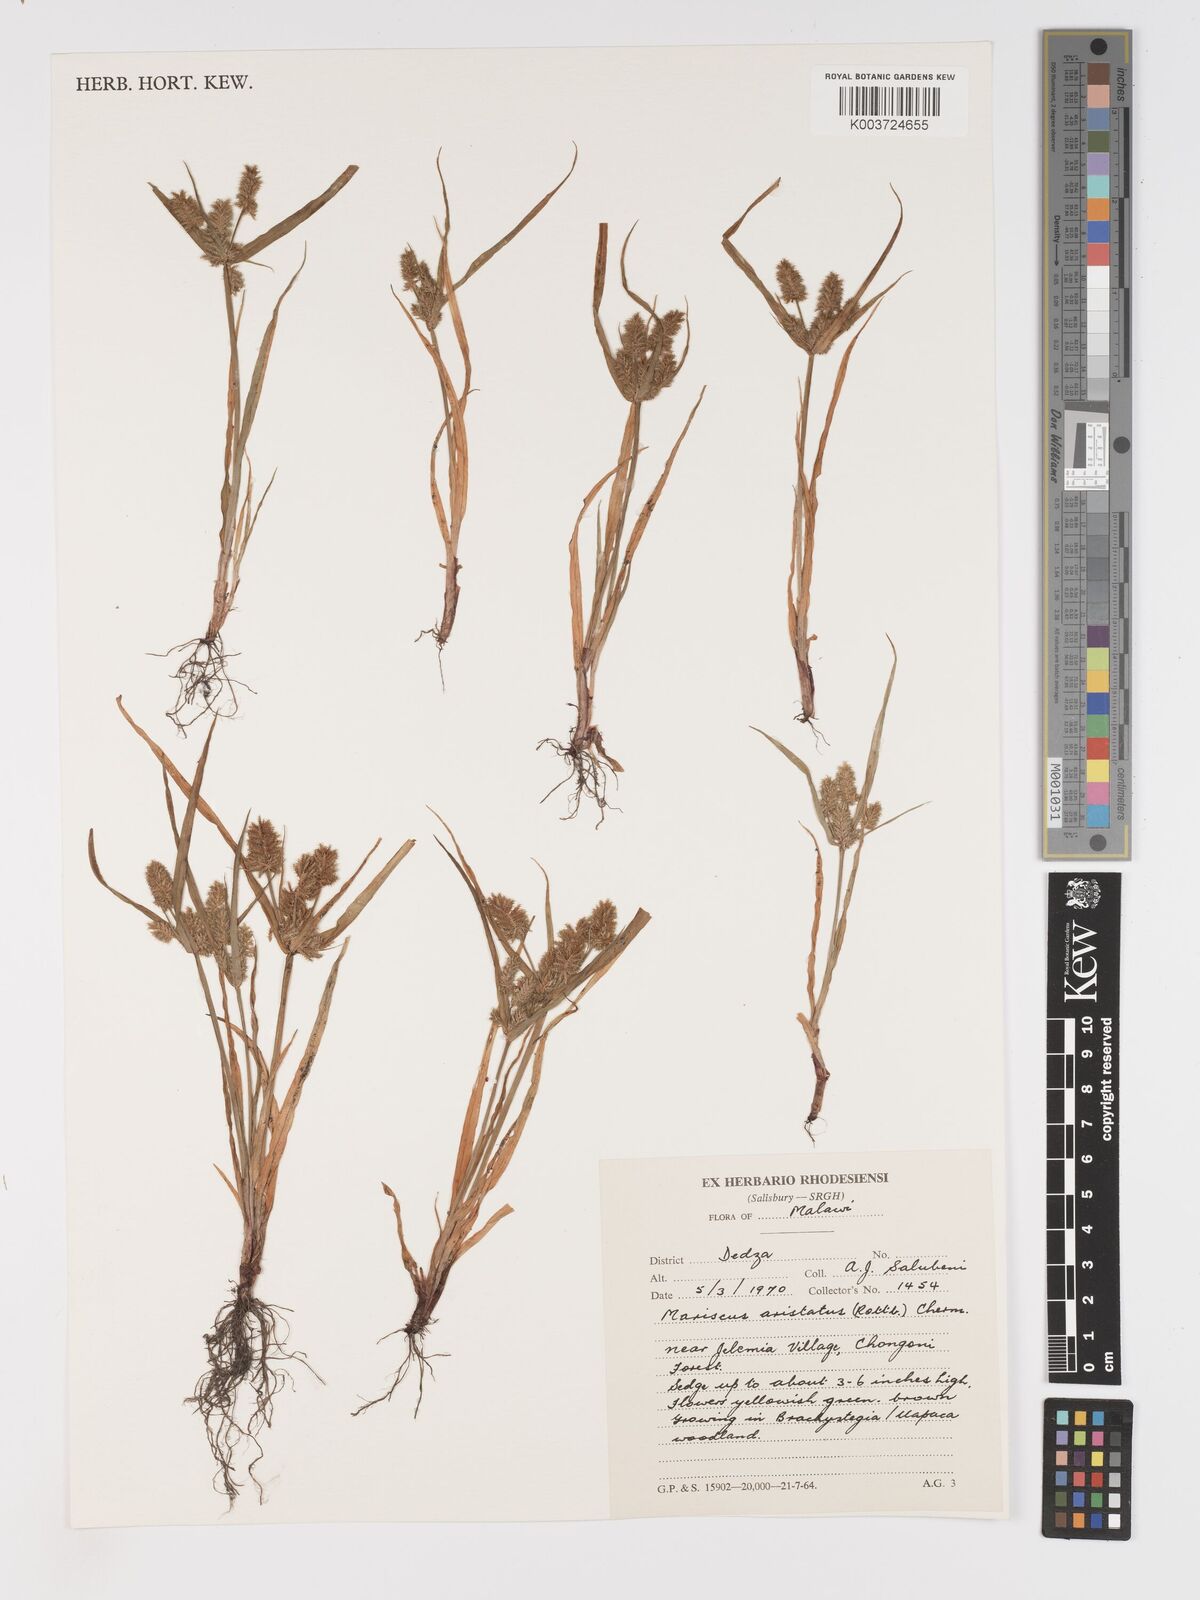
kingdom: Plantae
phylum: Tracheophyta
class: Liliopsida
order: Poales
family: Cyperaceae
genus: Cyperus
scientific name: Cyperus squarrosus
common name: Awned cyperus
